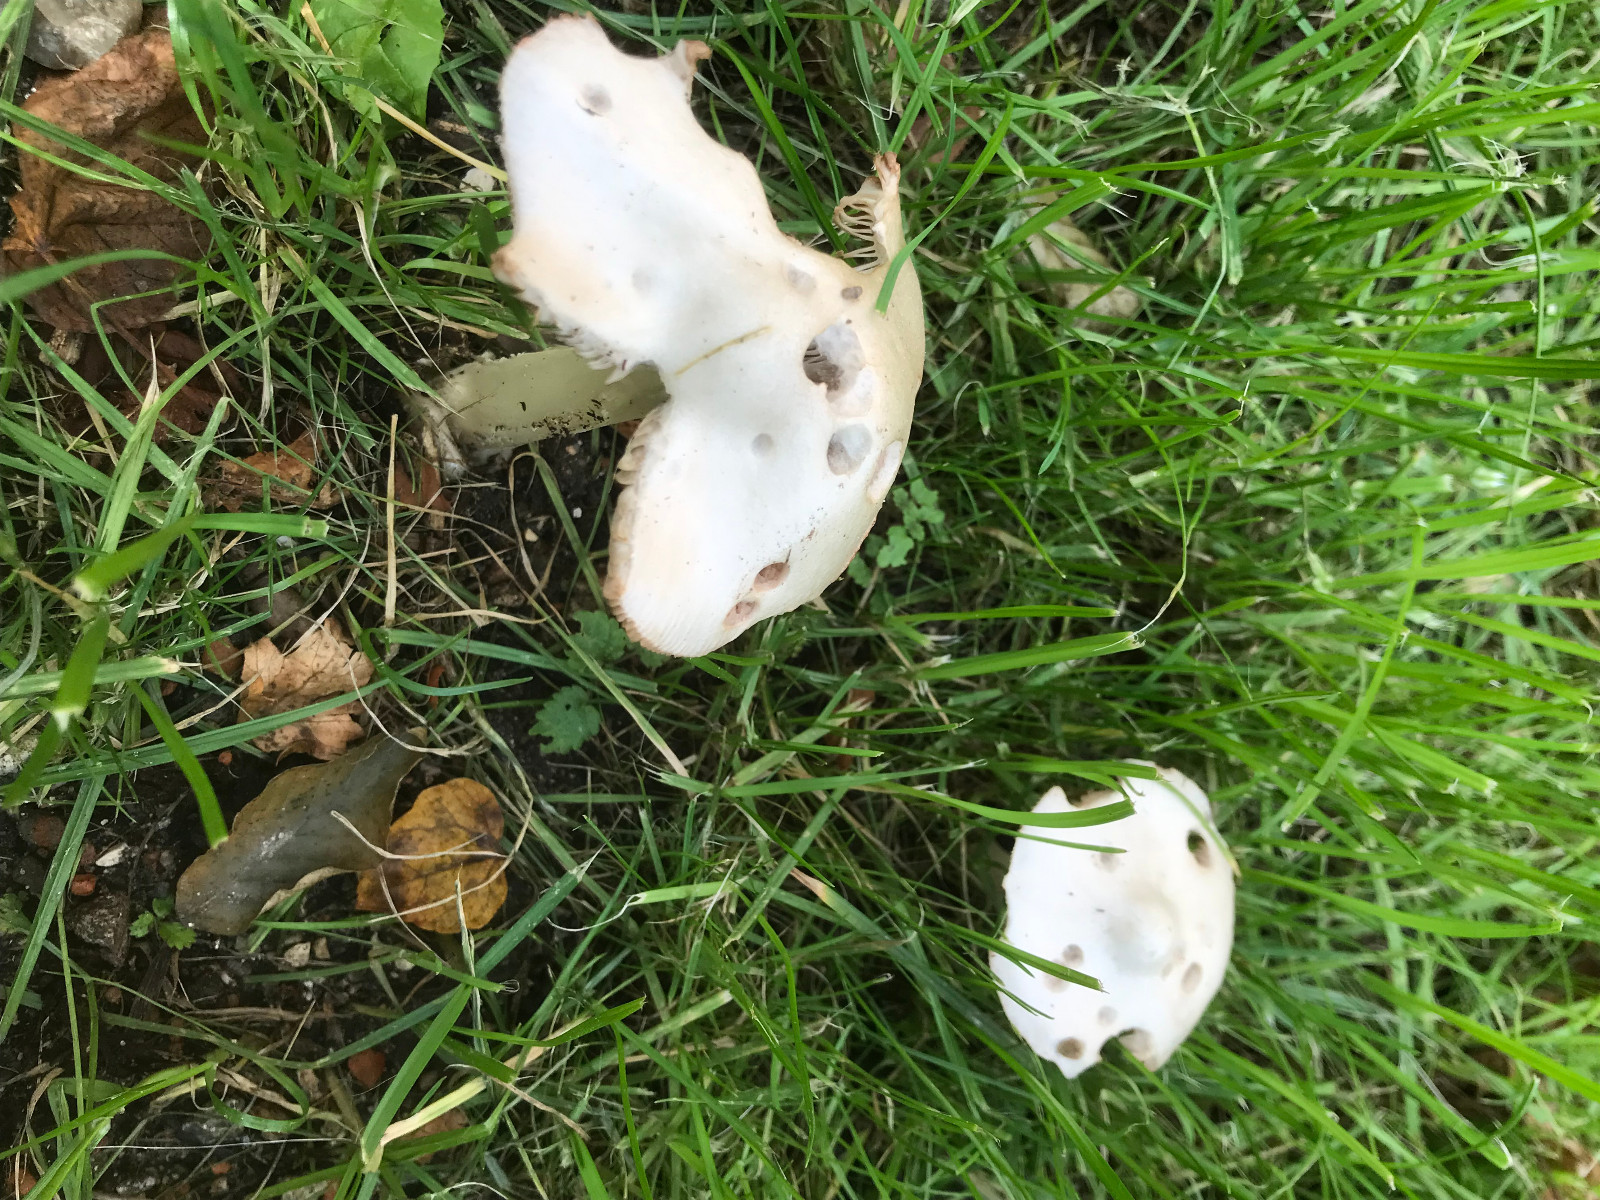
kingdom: Fungi
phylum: Basidiomycota
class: Agaricomycetes
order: Agaricales
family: Pluteaceae
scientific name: Pluteaceae
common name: skærmhatfamilien
